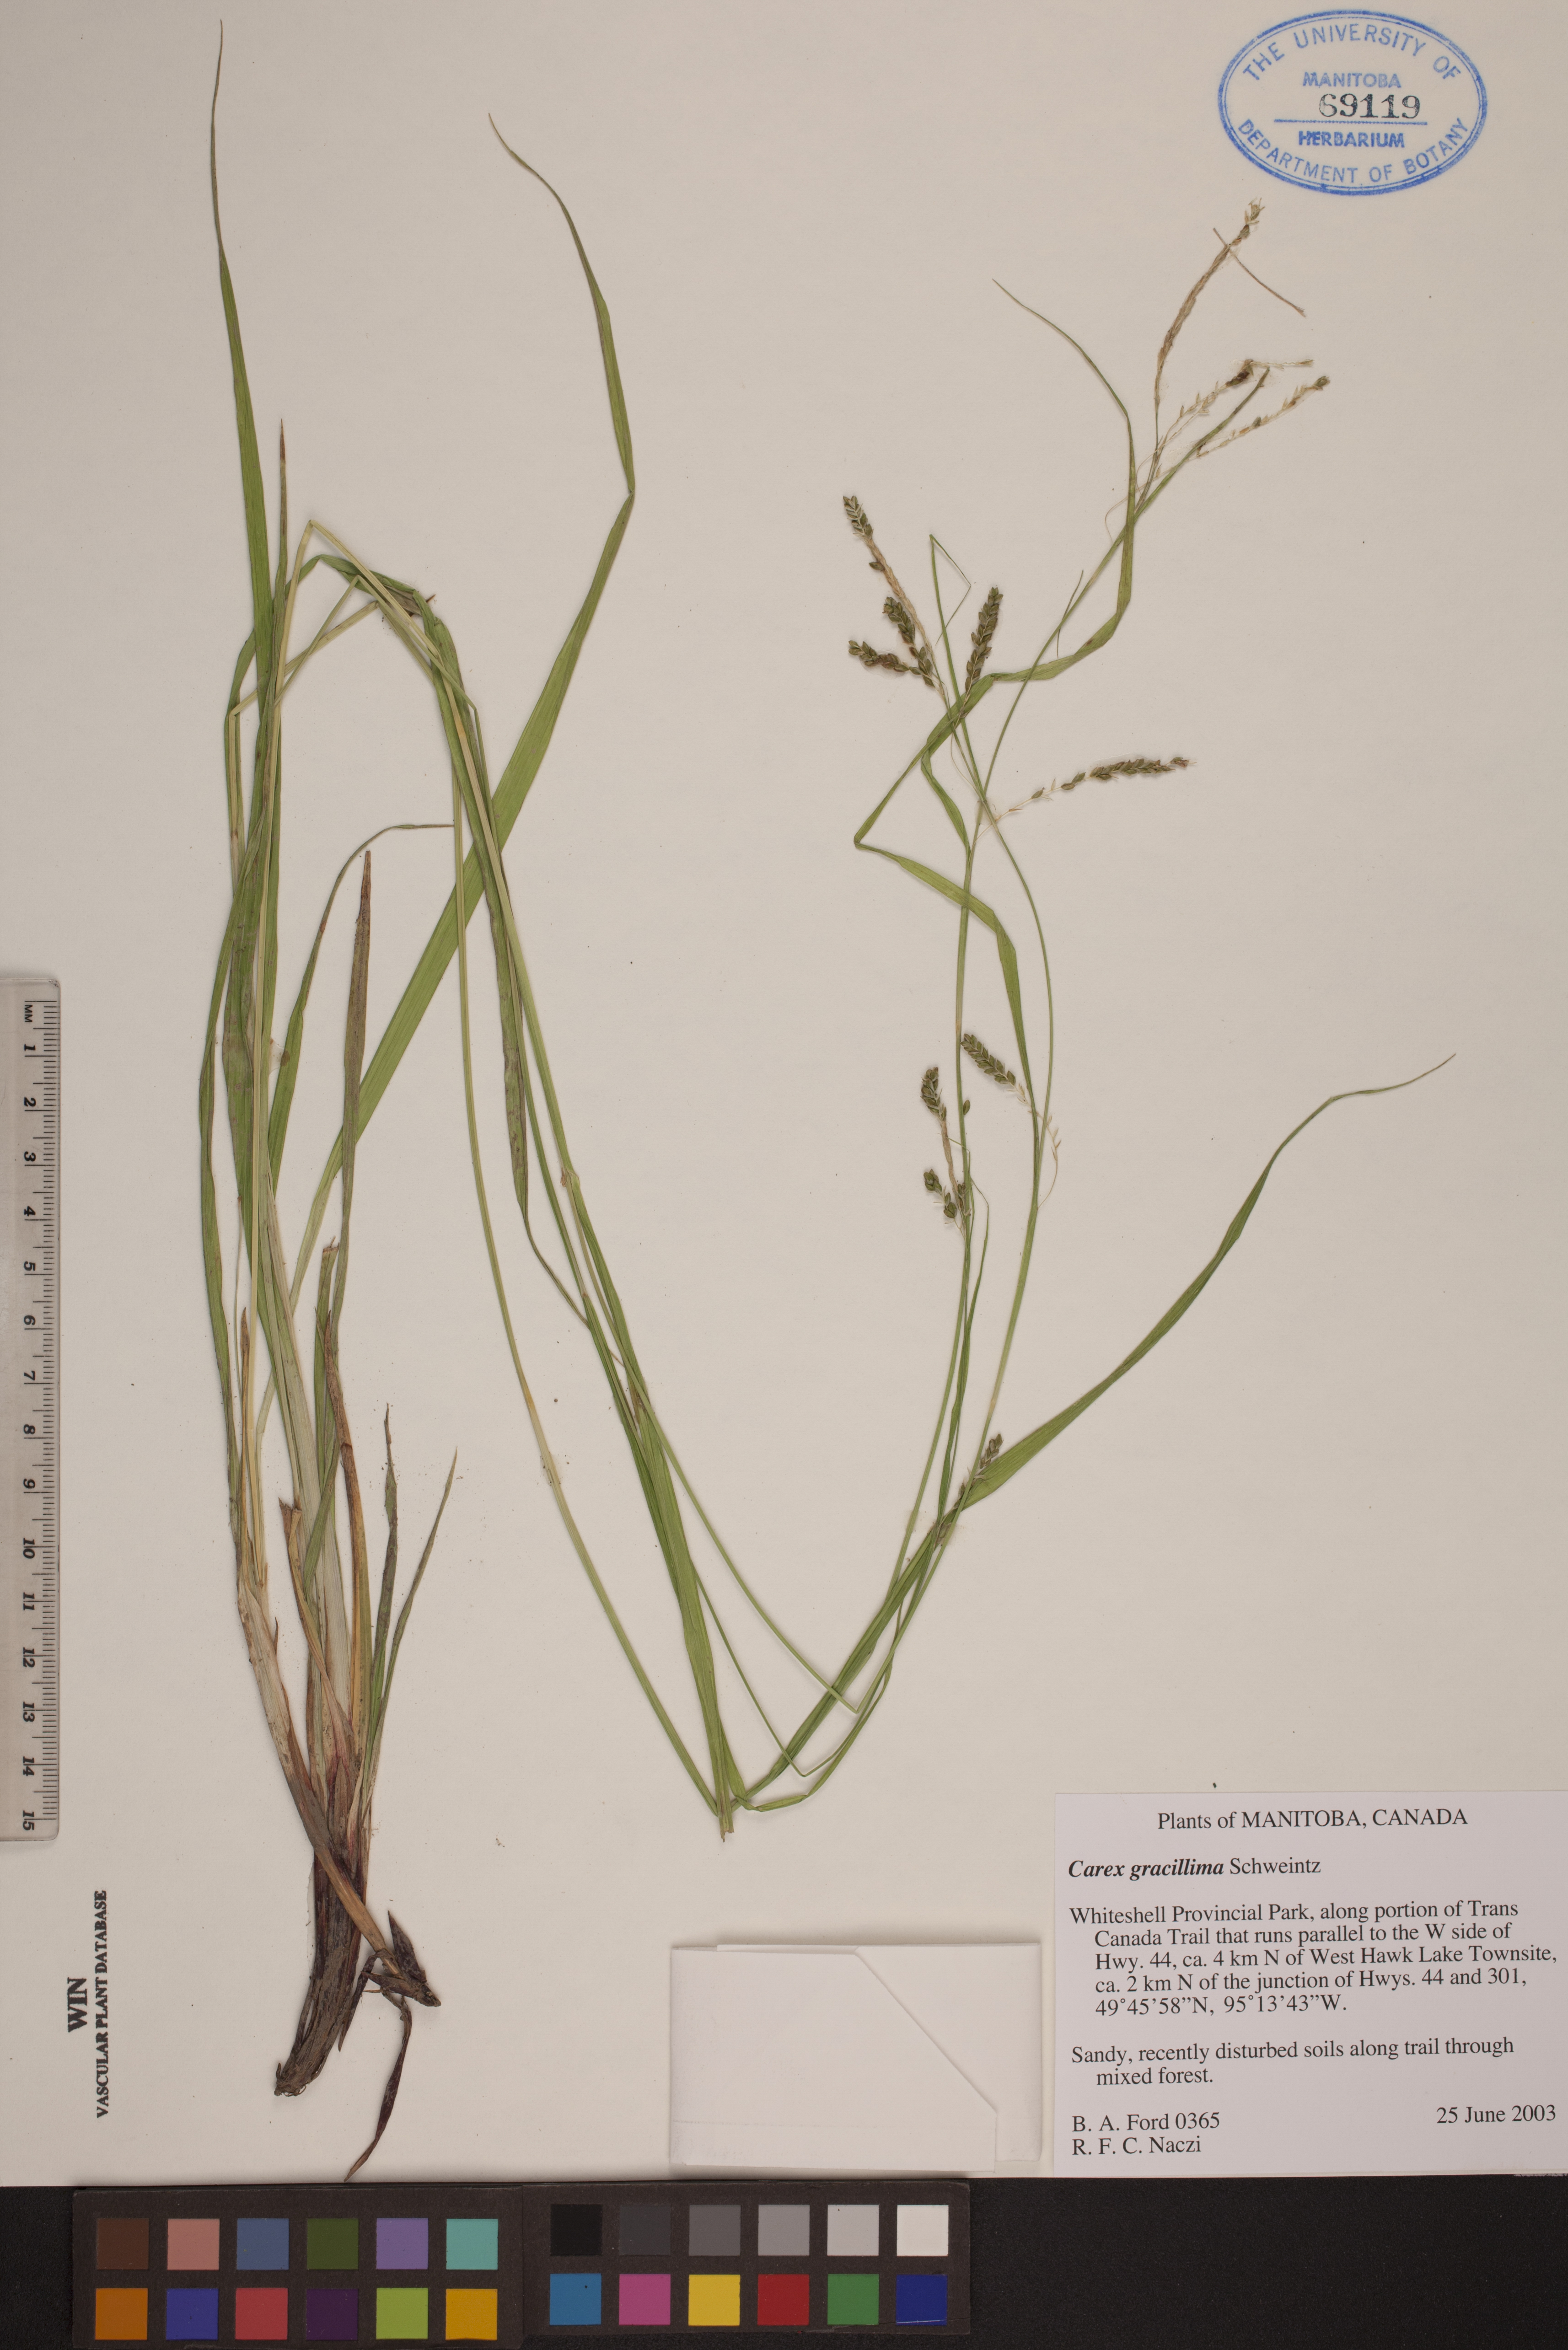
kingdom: Plantae
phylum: Tracheophyta
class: Liliopsida
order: Poales
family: Cyperaceae
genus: Carex
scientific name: Carex gracillima
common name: Graceful sedge
